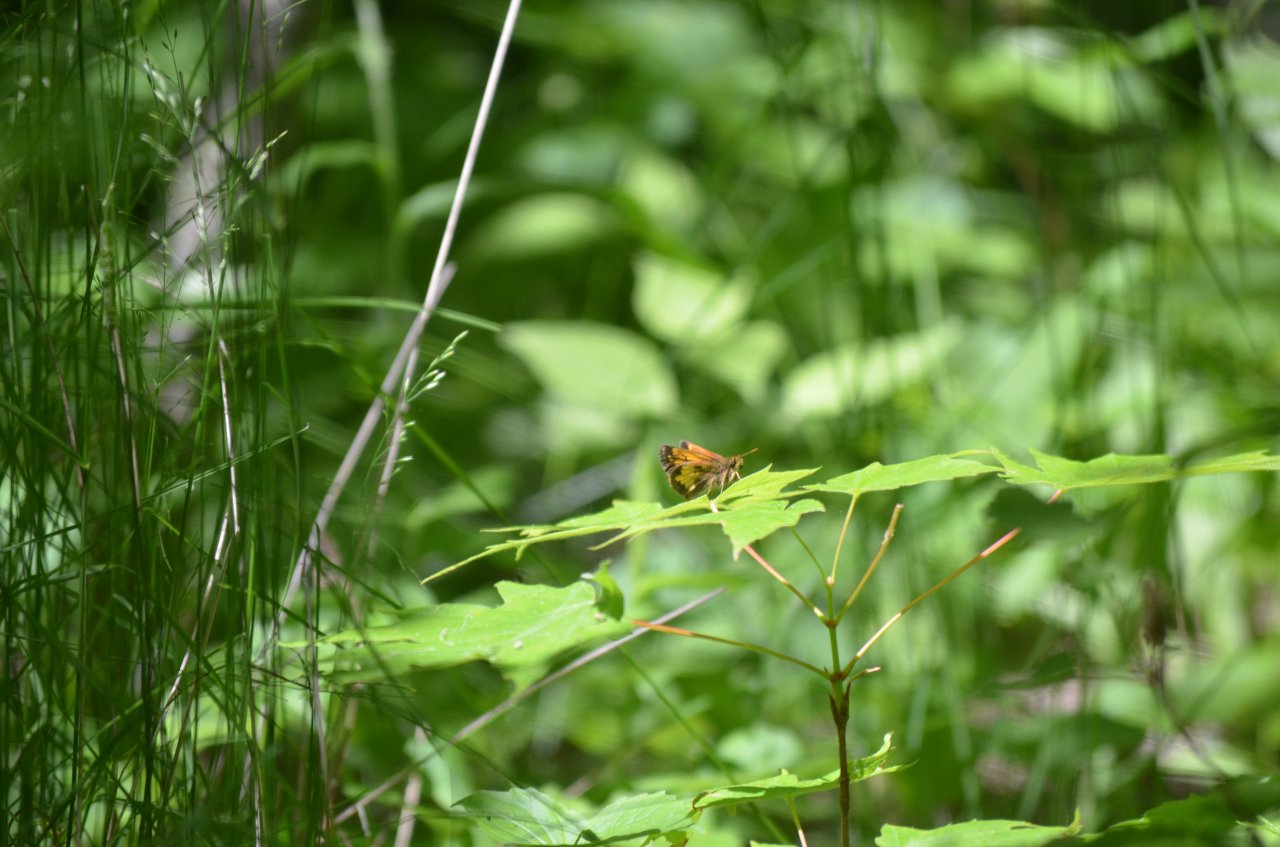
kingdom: Animalia
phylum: Arthropoda
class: Insecta
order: Lepidoptera
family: Hesperiidae
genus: Lon
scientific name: Lon hobomok
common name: Hobomok Skipper
